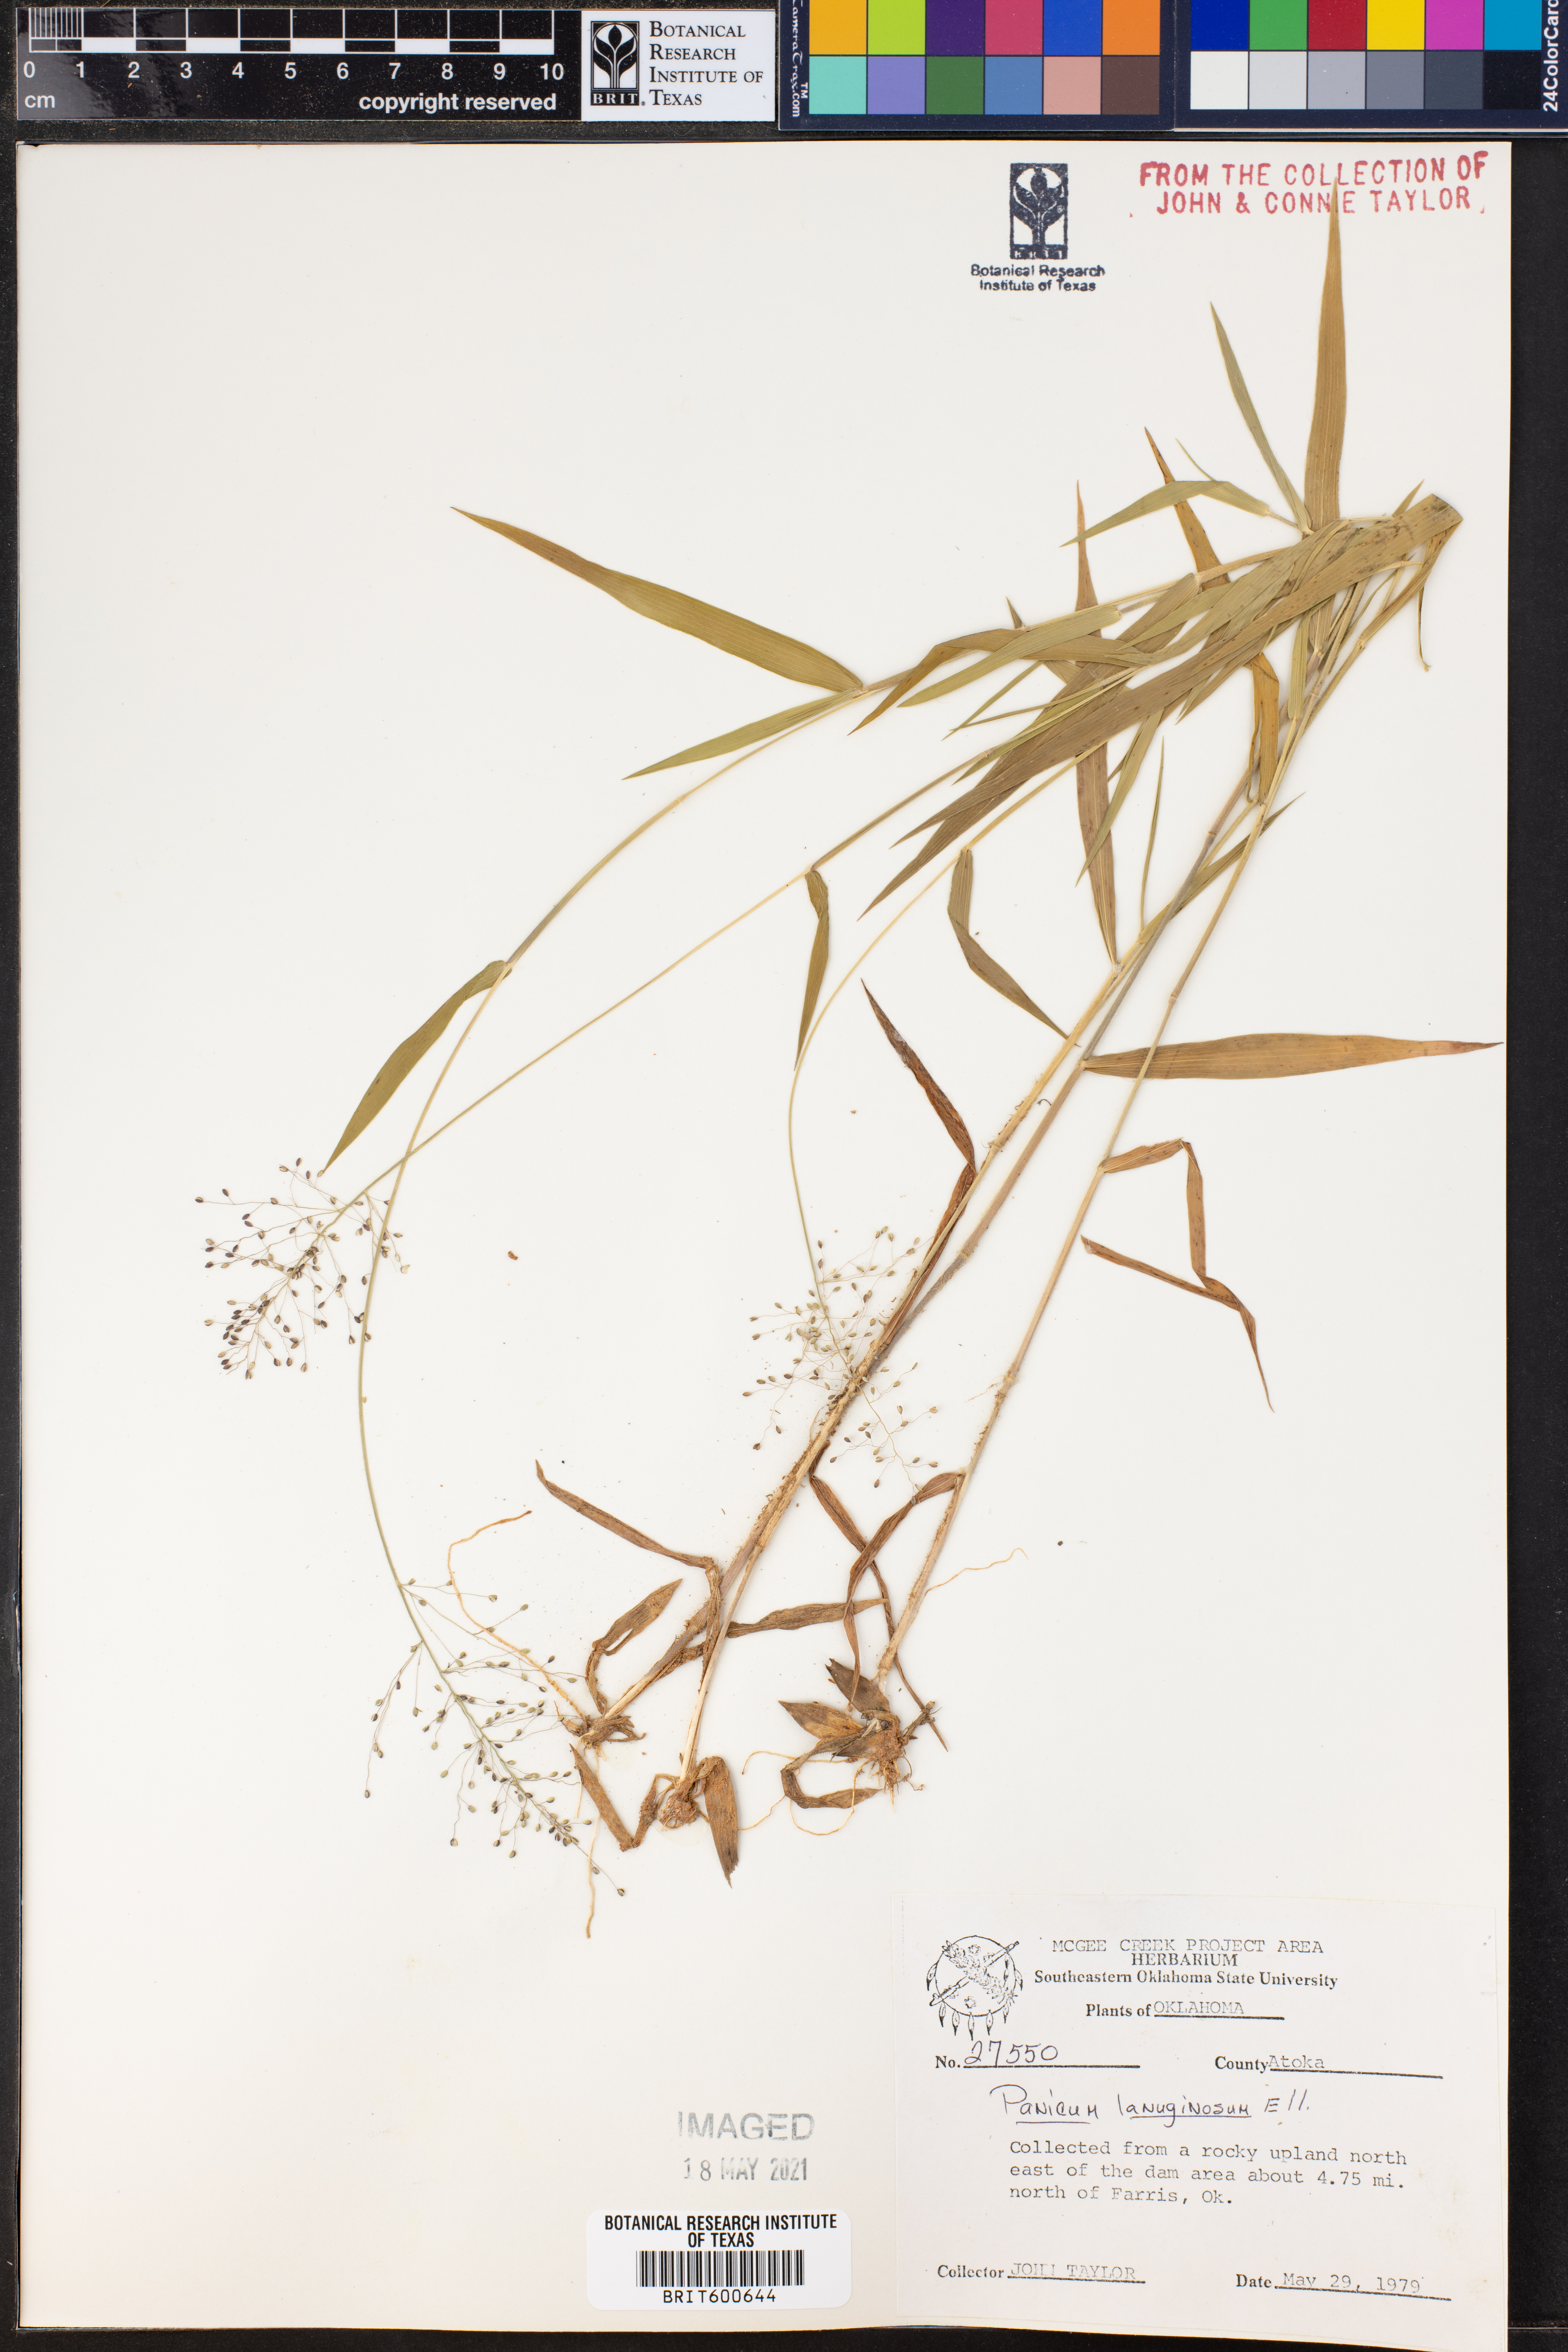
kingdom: Plantae
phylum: Tracheophyta
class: Liliopsida
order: Poales
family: Poaceae
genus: Dichanthelium
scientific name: Dichanthelium lanuginosum
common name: Woolly panicgrass
